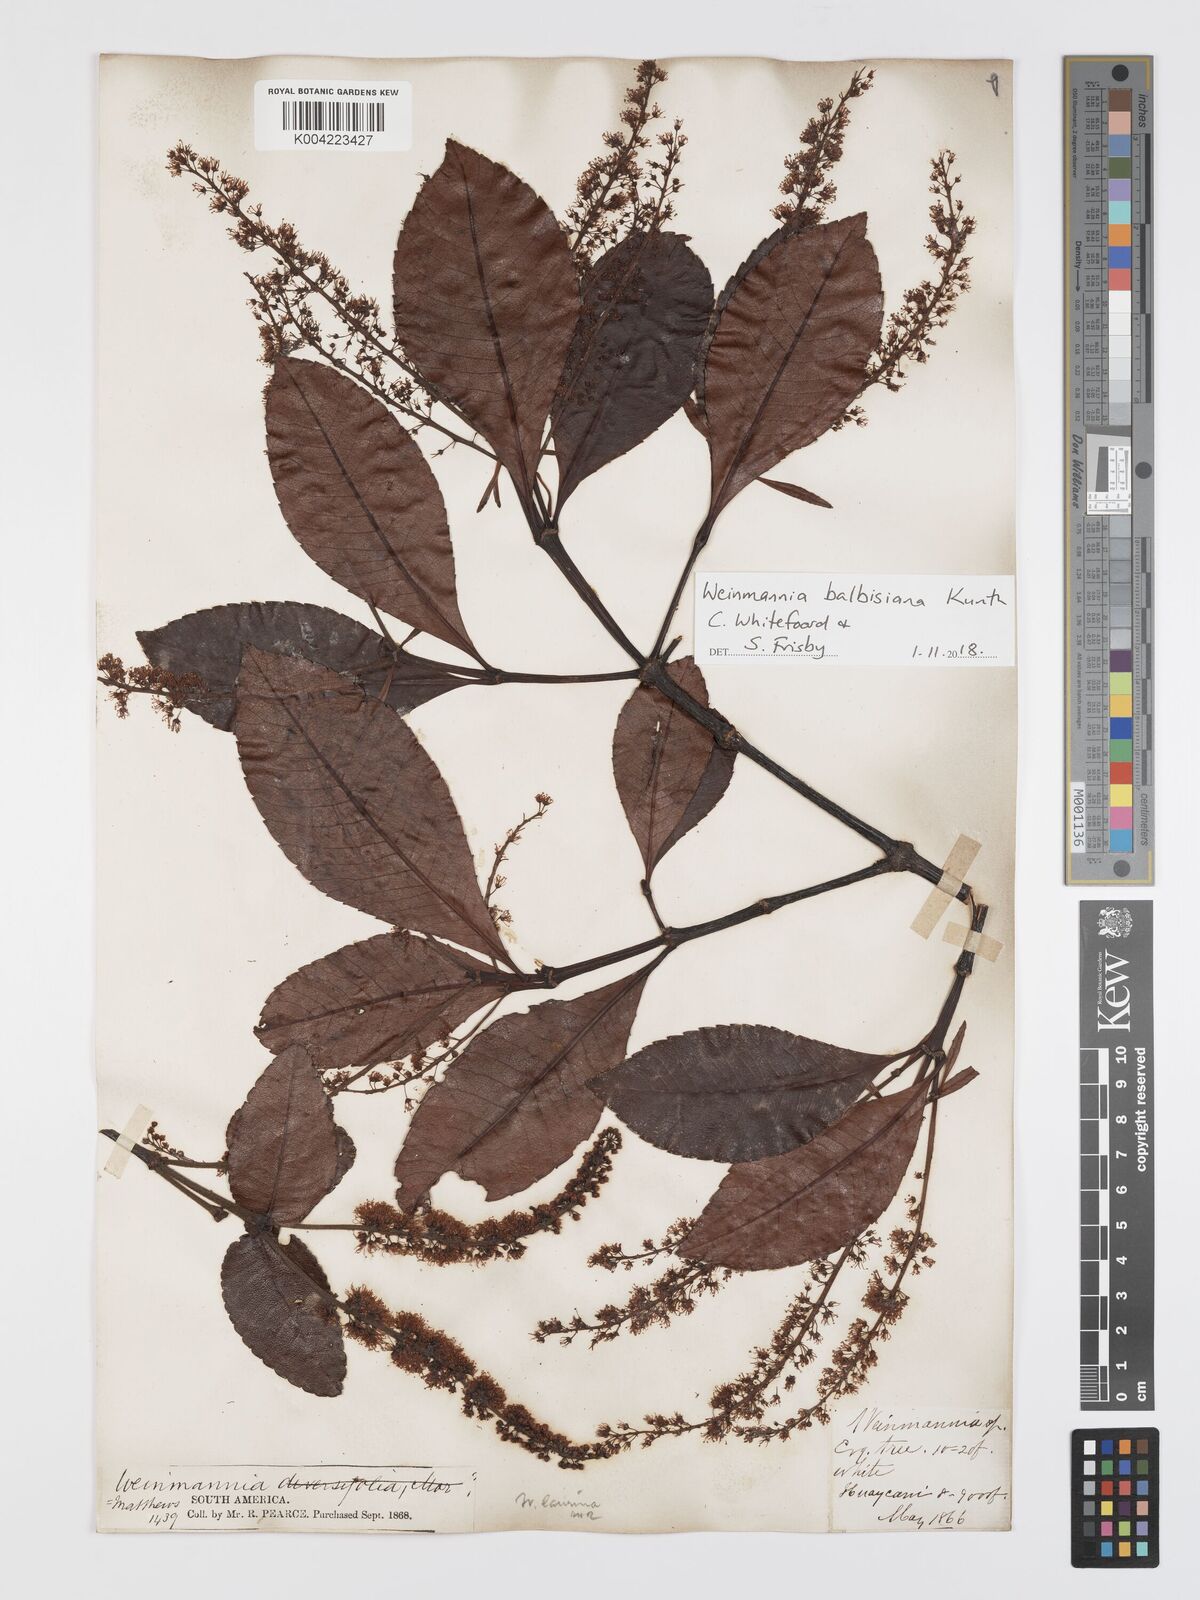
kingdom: Plantae
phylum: Tracheophyta
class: Magnoliopsida
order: Oxalidales
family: Cunoniaceae
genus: Weinmannia
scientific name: Weinmannia balbisana
